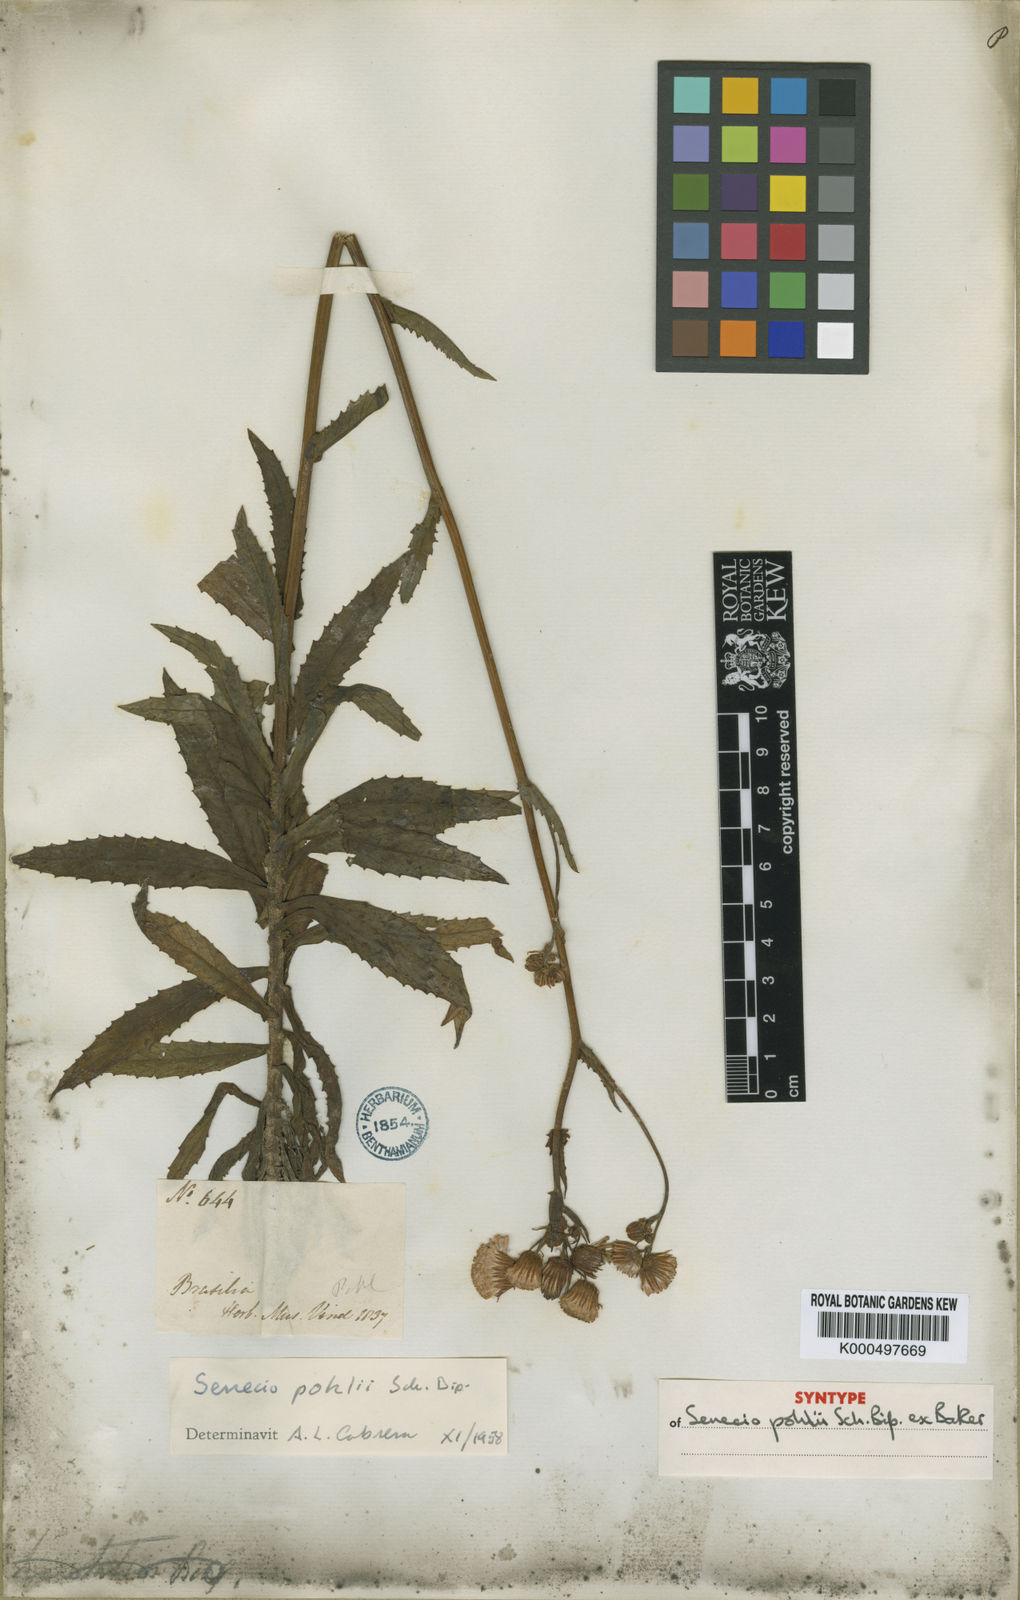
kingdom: Plantae
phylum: Tracheophyta
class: Magnoliopsida
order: Asterales
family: Asteraceae
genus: Senecio
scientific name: Senecio
